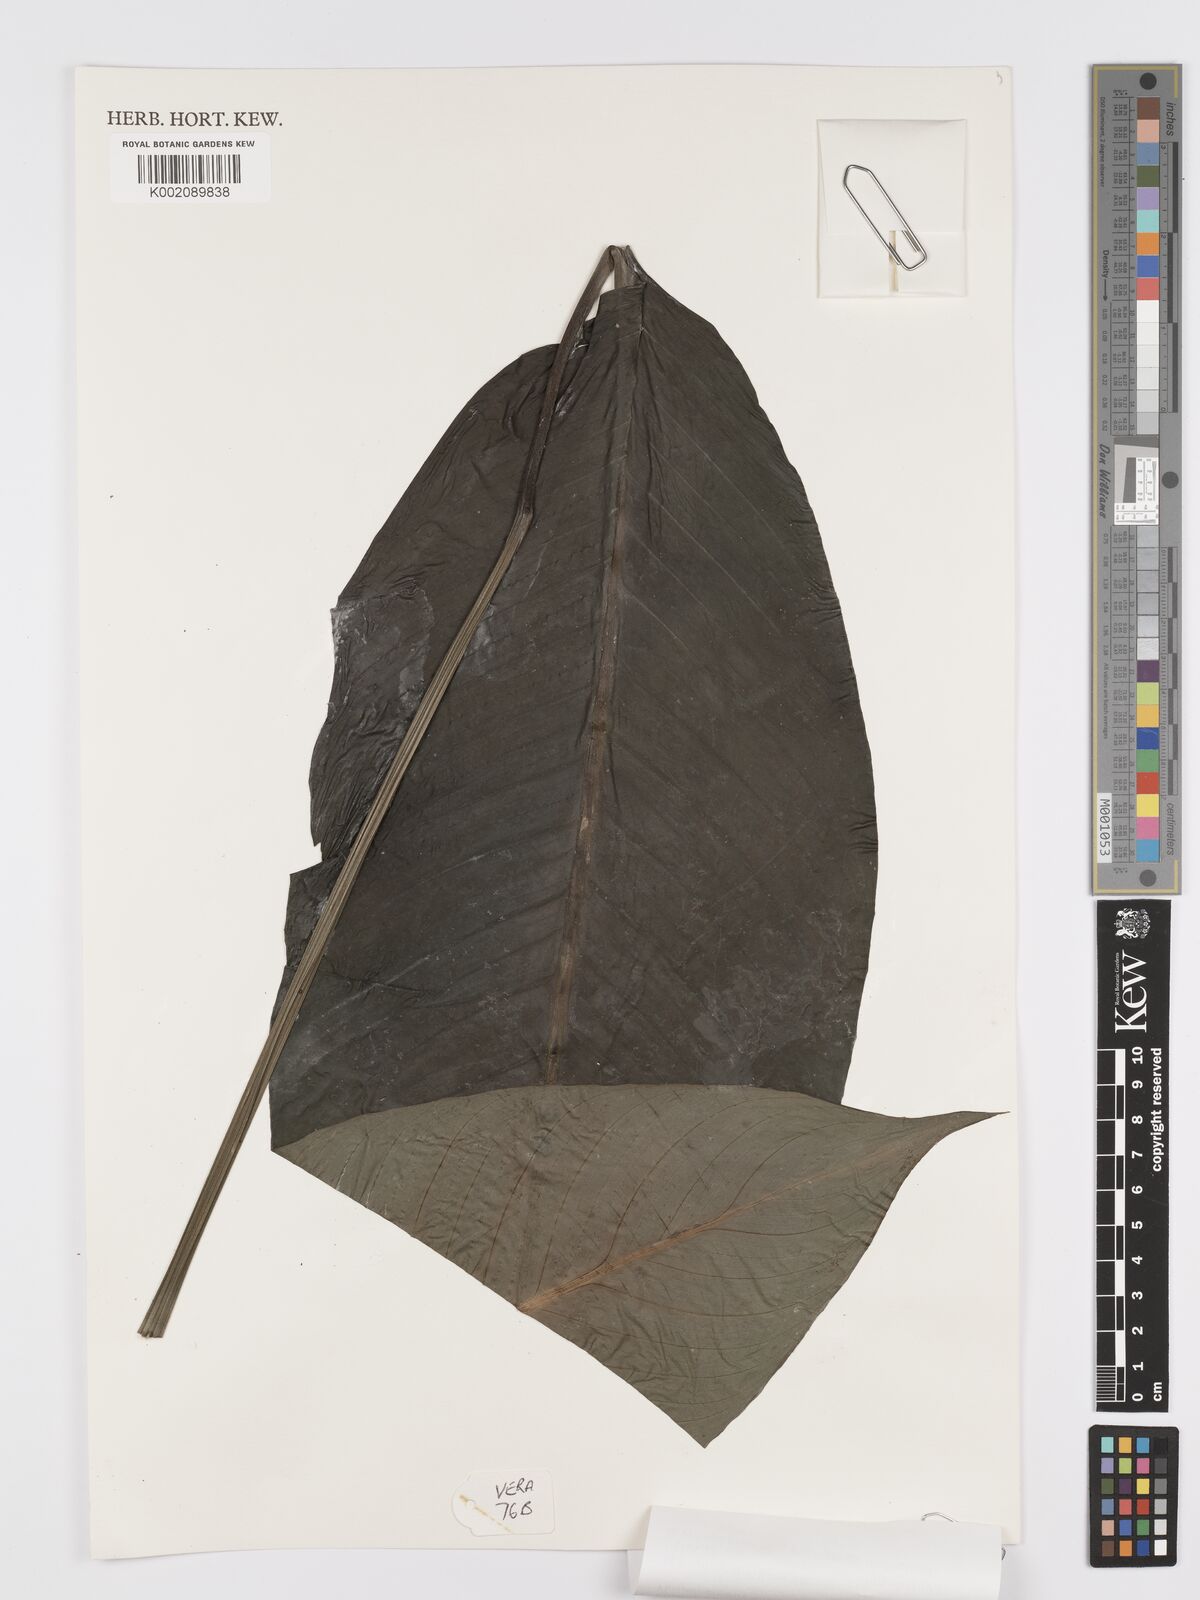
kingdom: Plantae
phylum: Tracheophyta
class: Liliopsida
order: Alismatales
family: Araceae
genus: Spathiphyllum
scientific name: Spathiphyllum cochlearispathum
